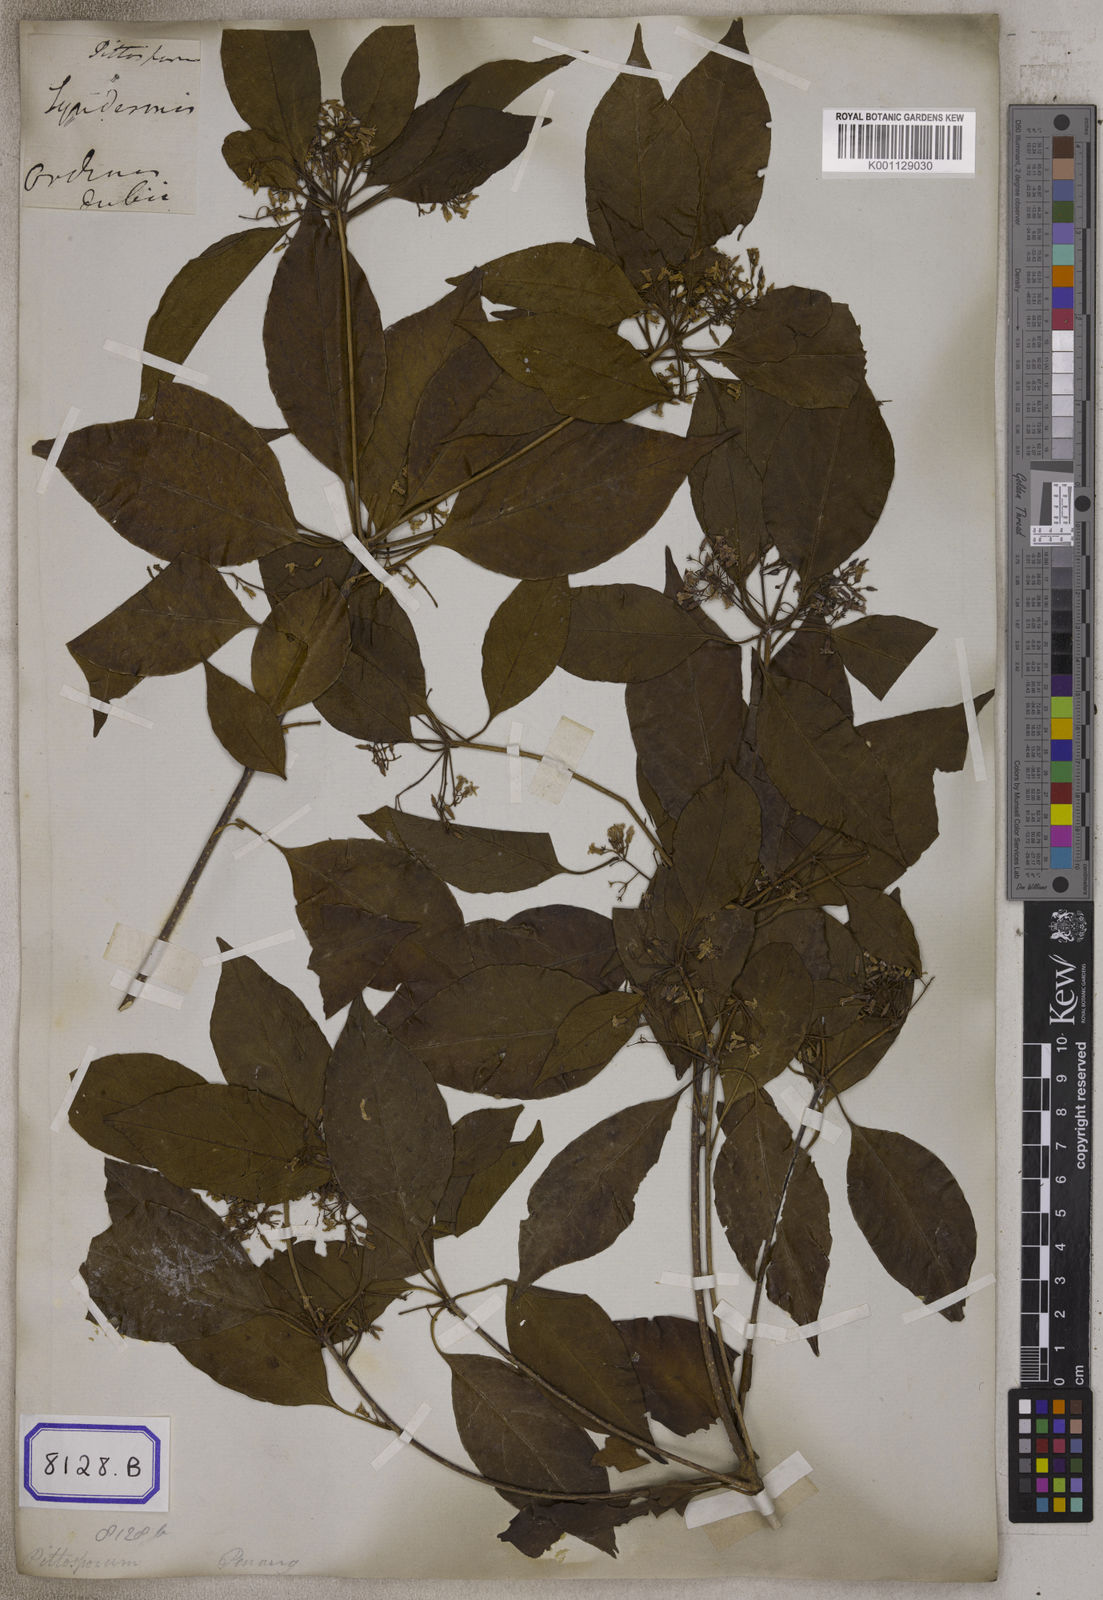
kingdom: Plantae
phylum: Tracheophyta
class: Magnoliopsida
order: Apiales
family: Pittosporaceae
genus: Pittosporum
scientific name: Pittosporum ferrugineum
